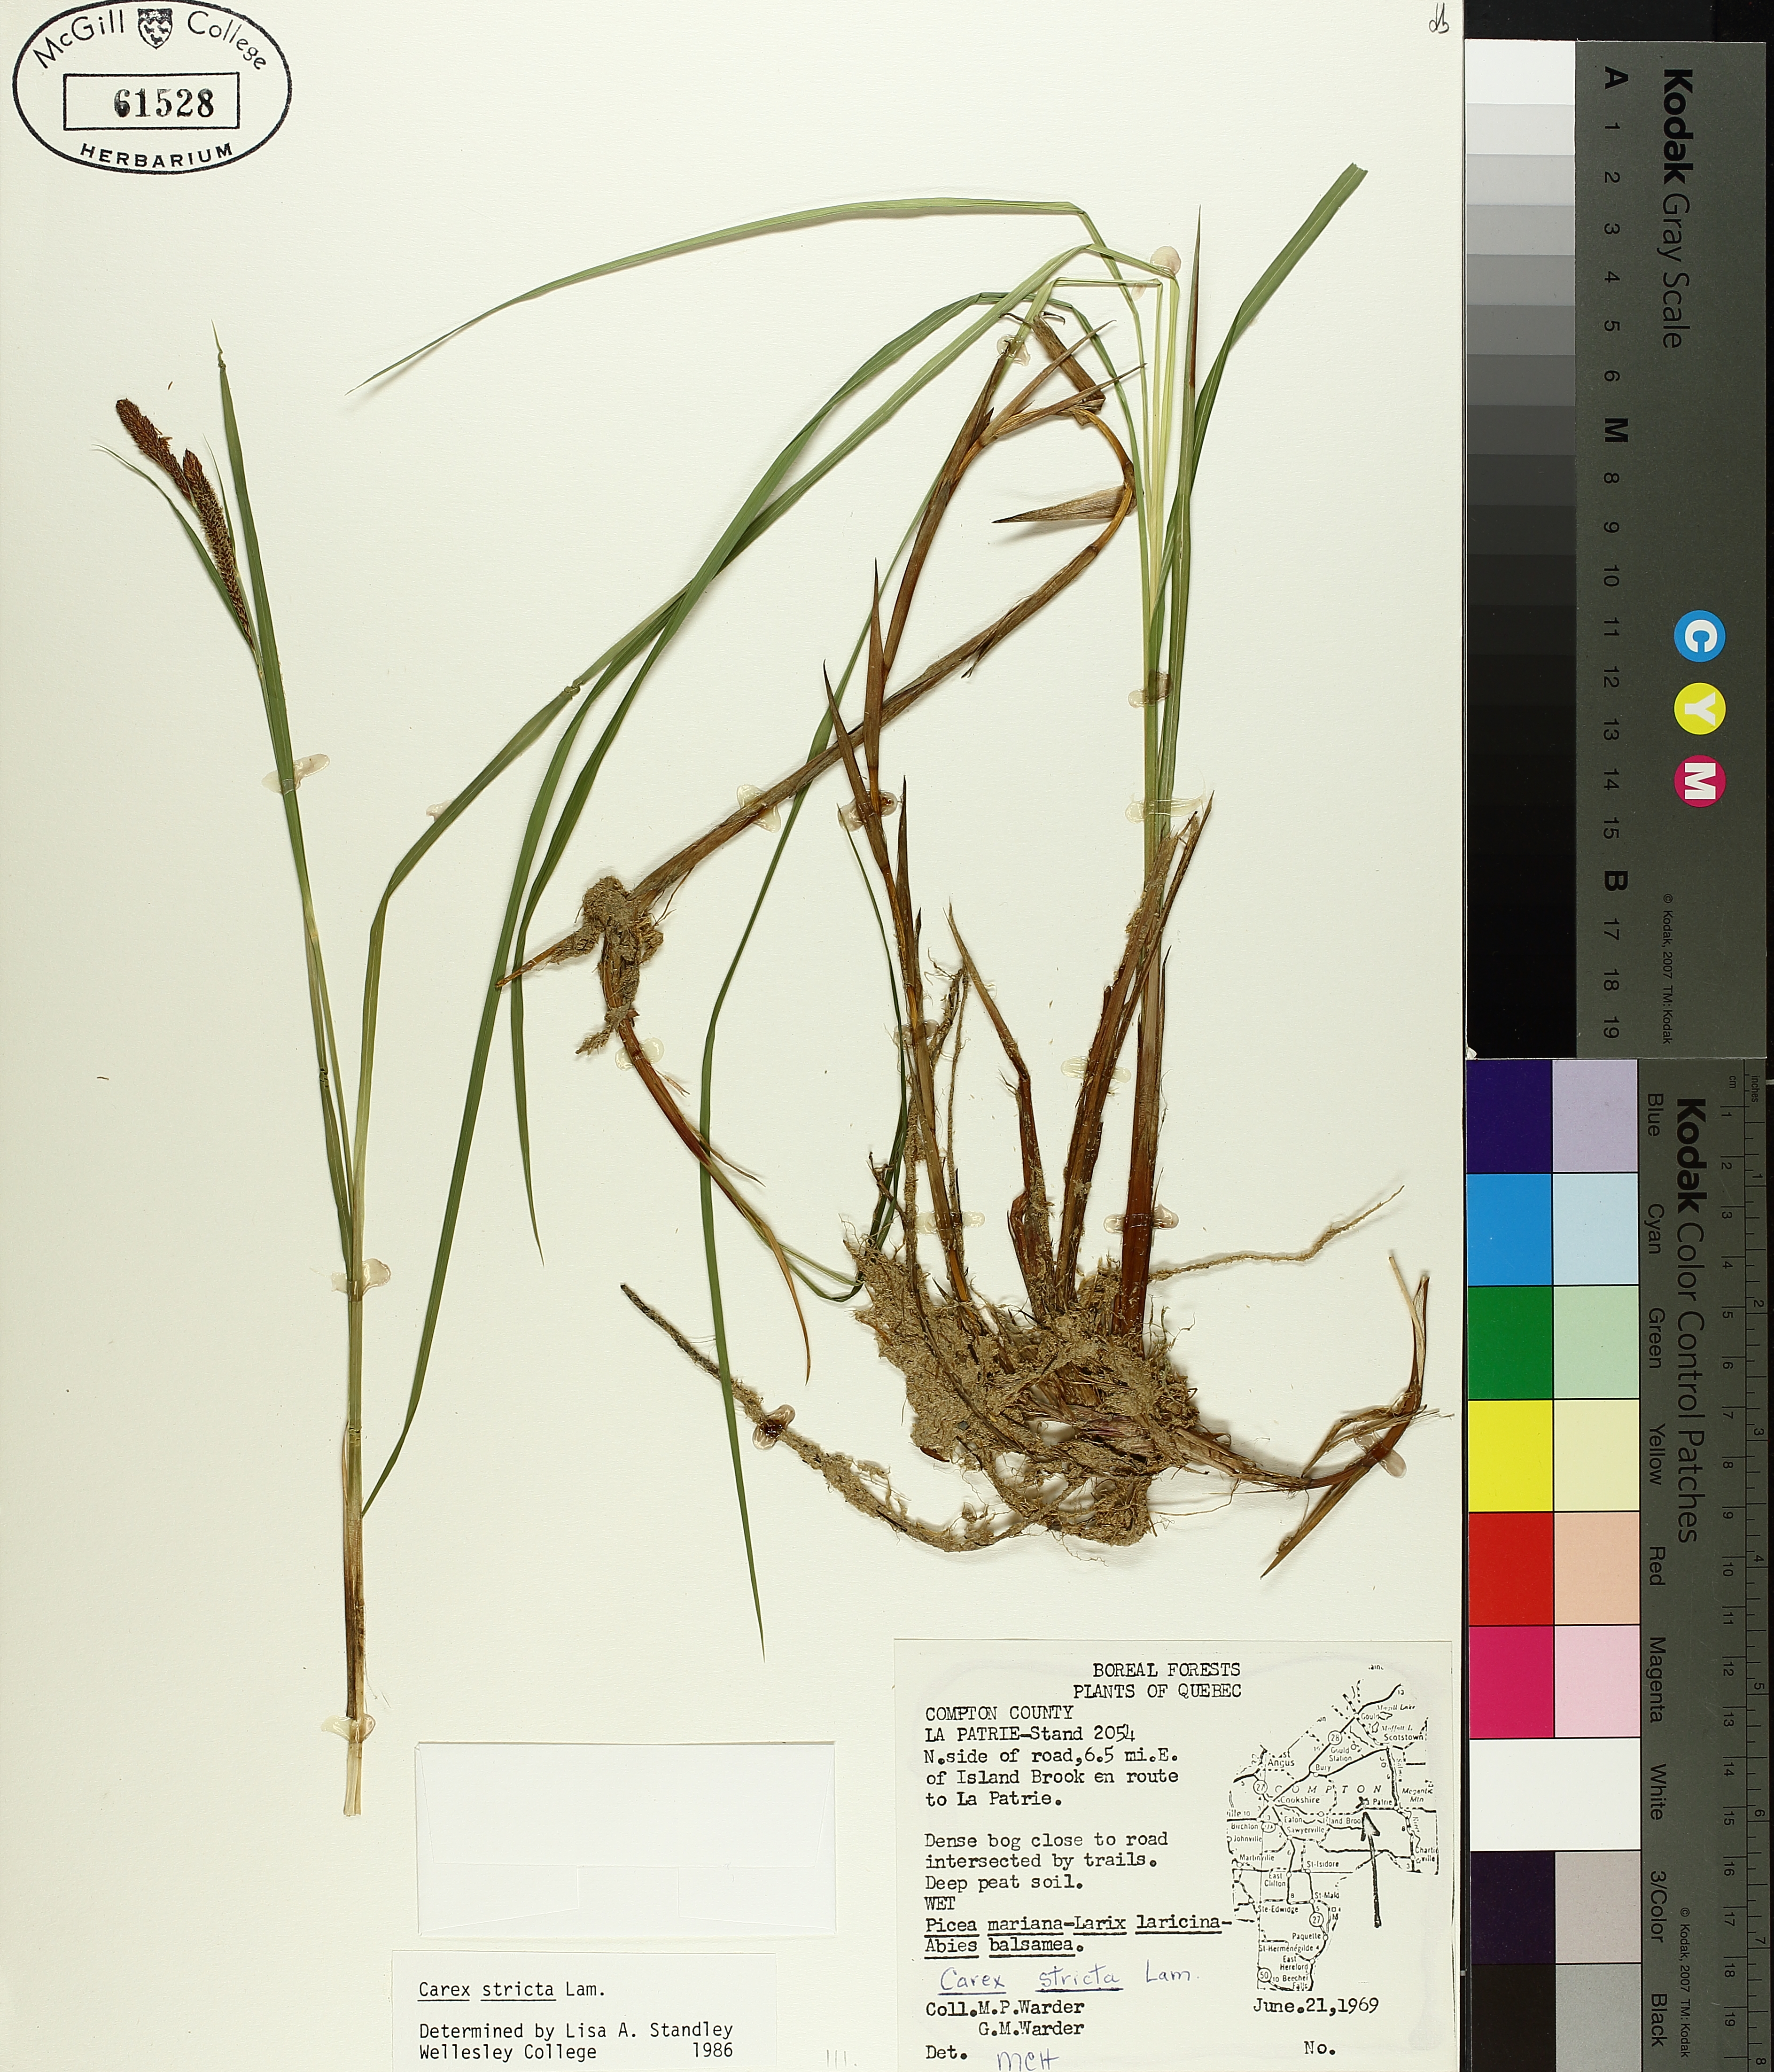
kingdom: Plantae
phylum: Tracheophyta
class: Liliopsida
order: Poales
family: Cyperaceae
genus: Carex
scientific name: Carex stricta
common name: Hummock sedge
